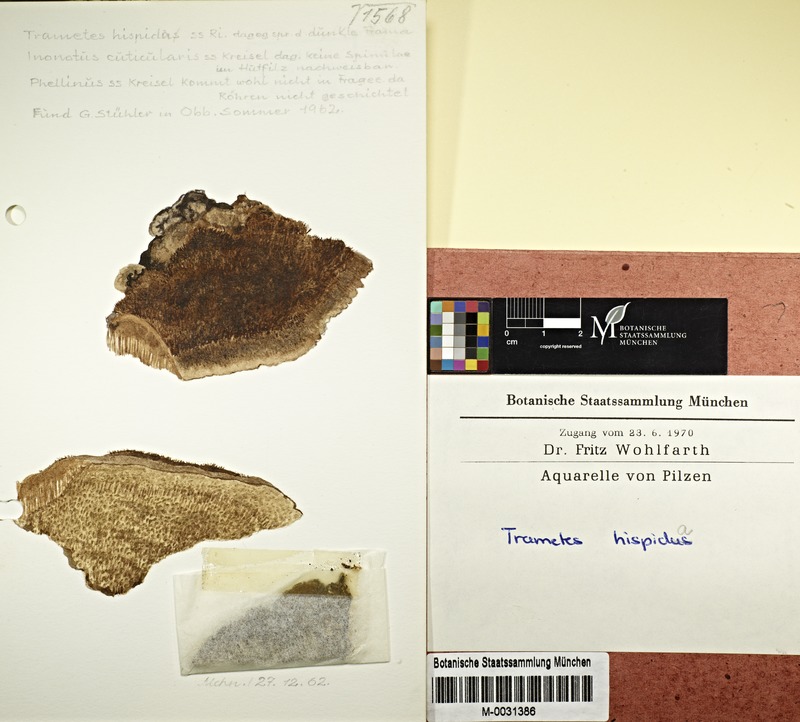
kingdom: Fungi
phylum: Basidiomycota
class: Agaricomycetes
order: Polyporales
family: Polyporaceae
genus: Coriolopsis
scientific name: Coriolopsis gallica
